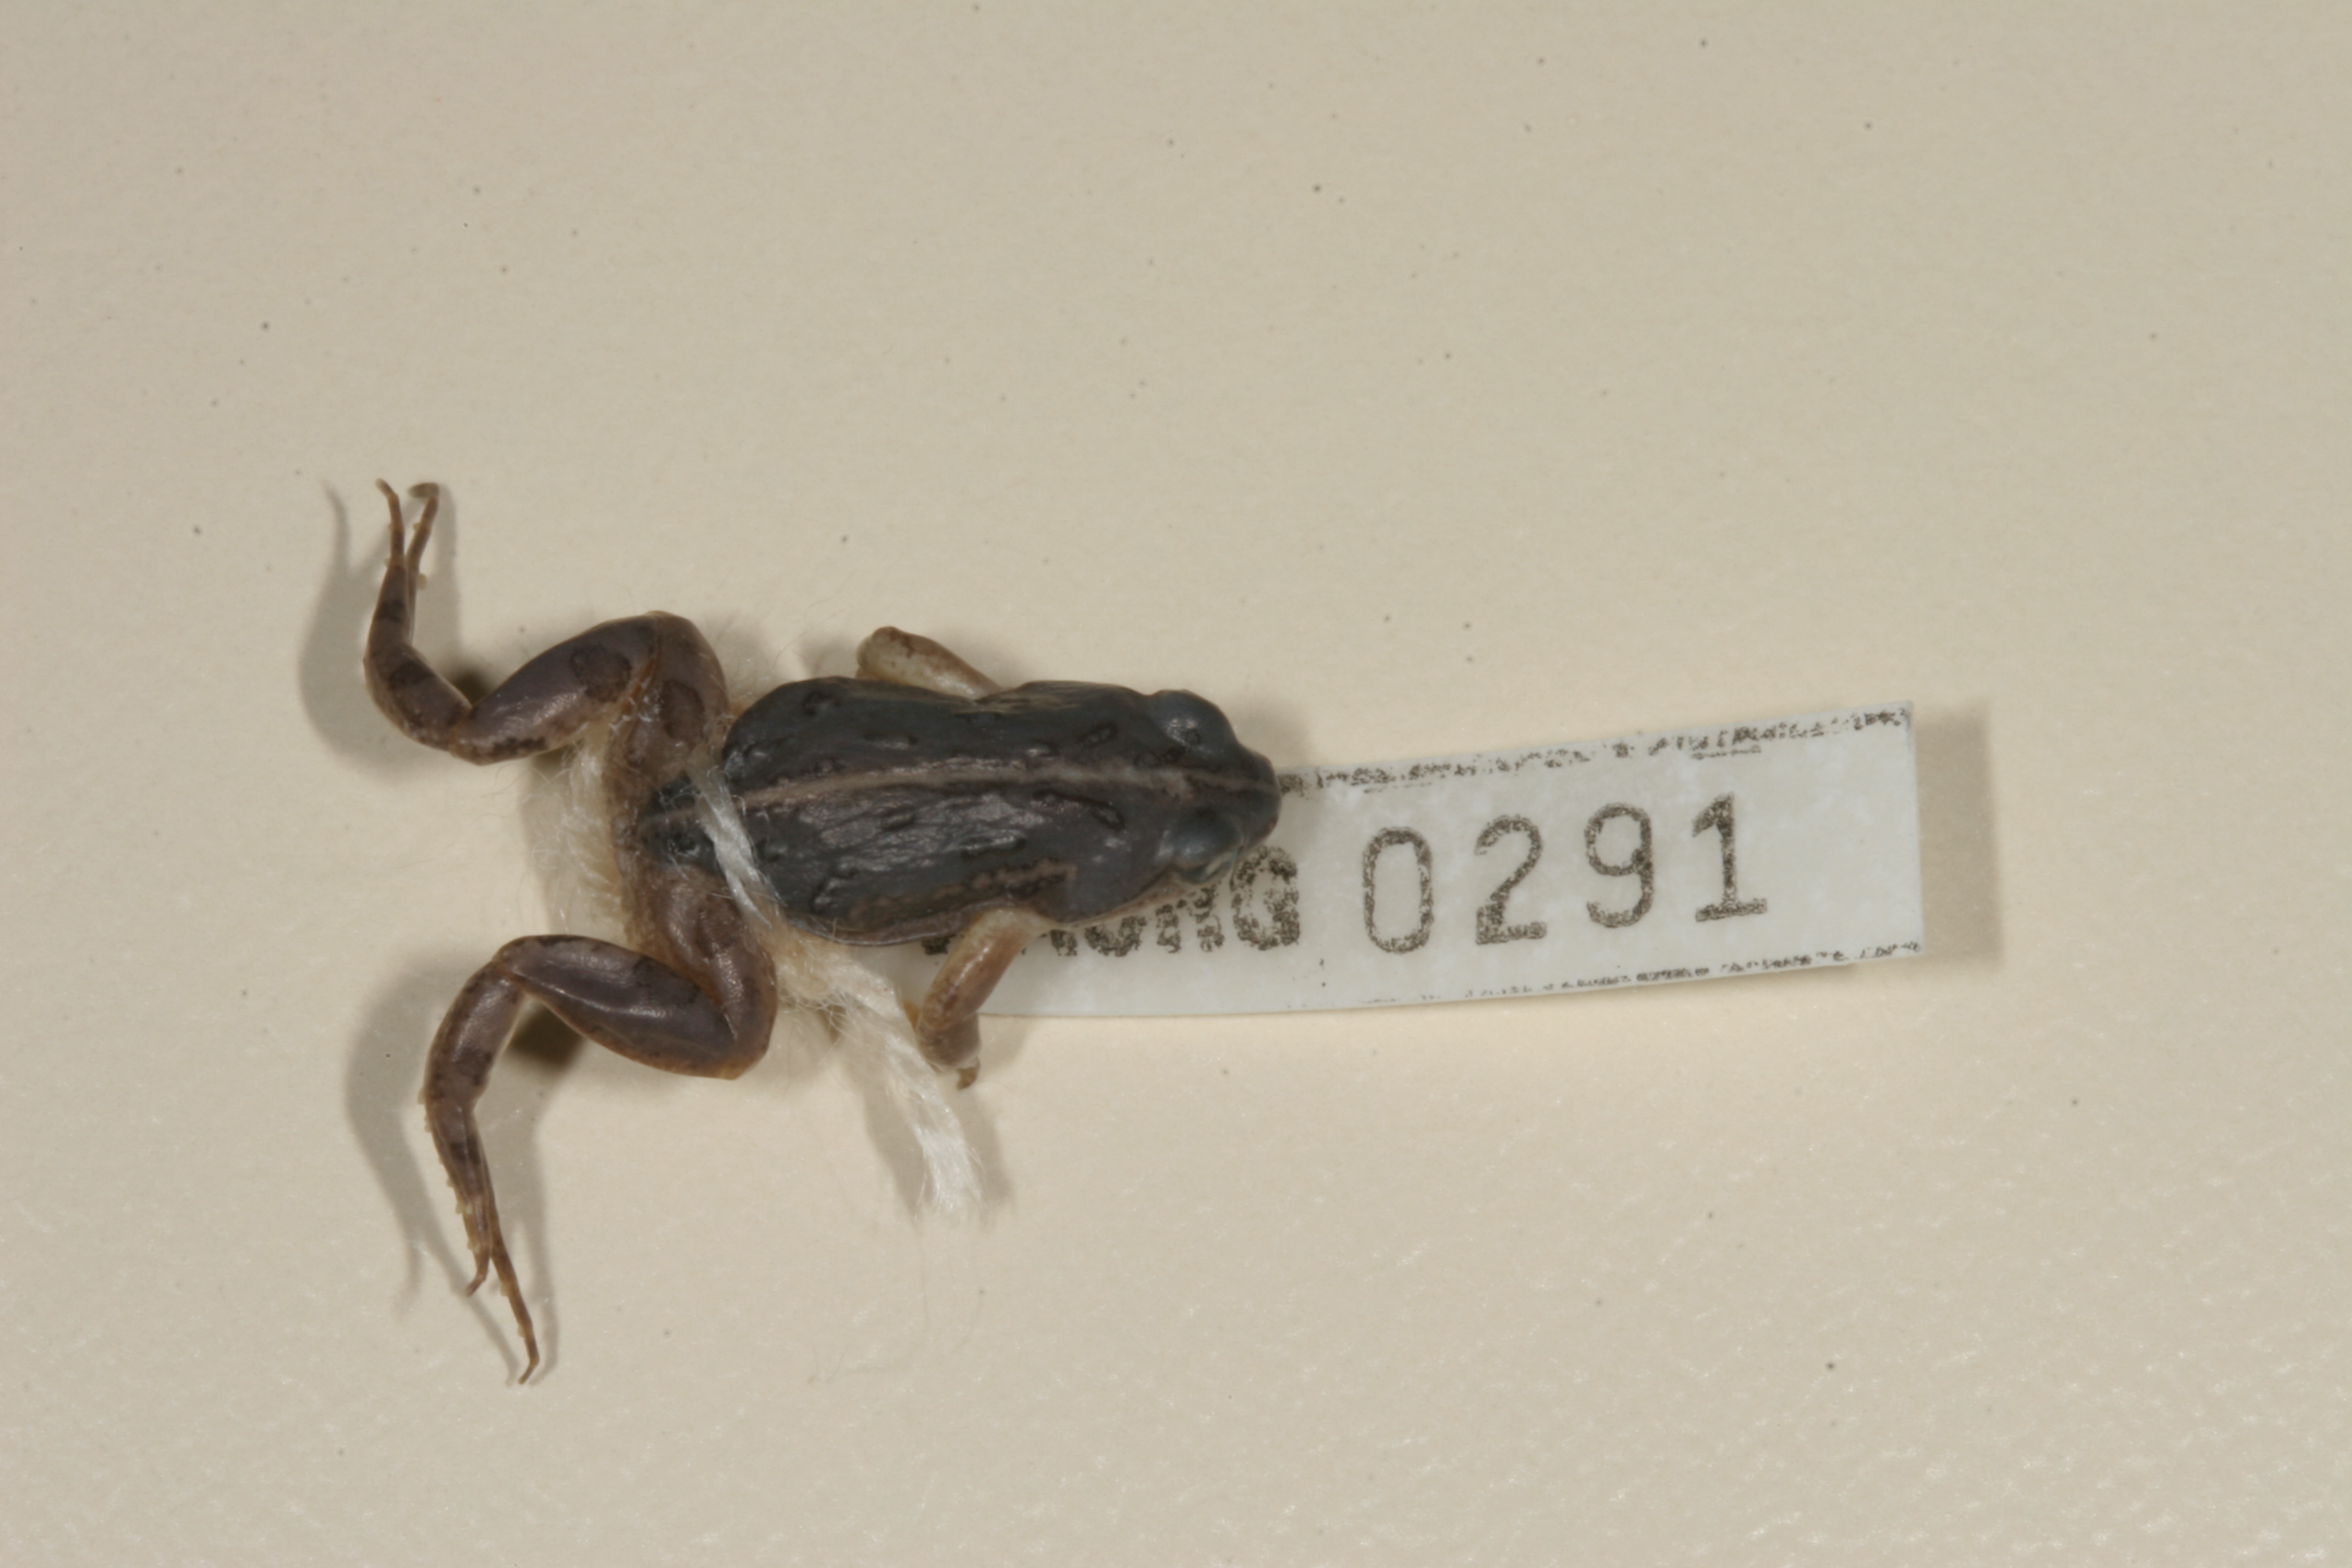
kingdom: Animalia
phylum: Chordata
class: Amphibia
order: Anura
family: Pyxicephalidae
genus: Cacosternum
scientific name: Cacosternum boettgeri
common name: Boettger's frog
